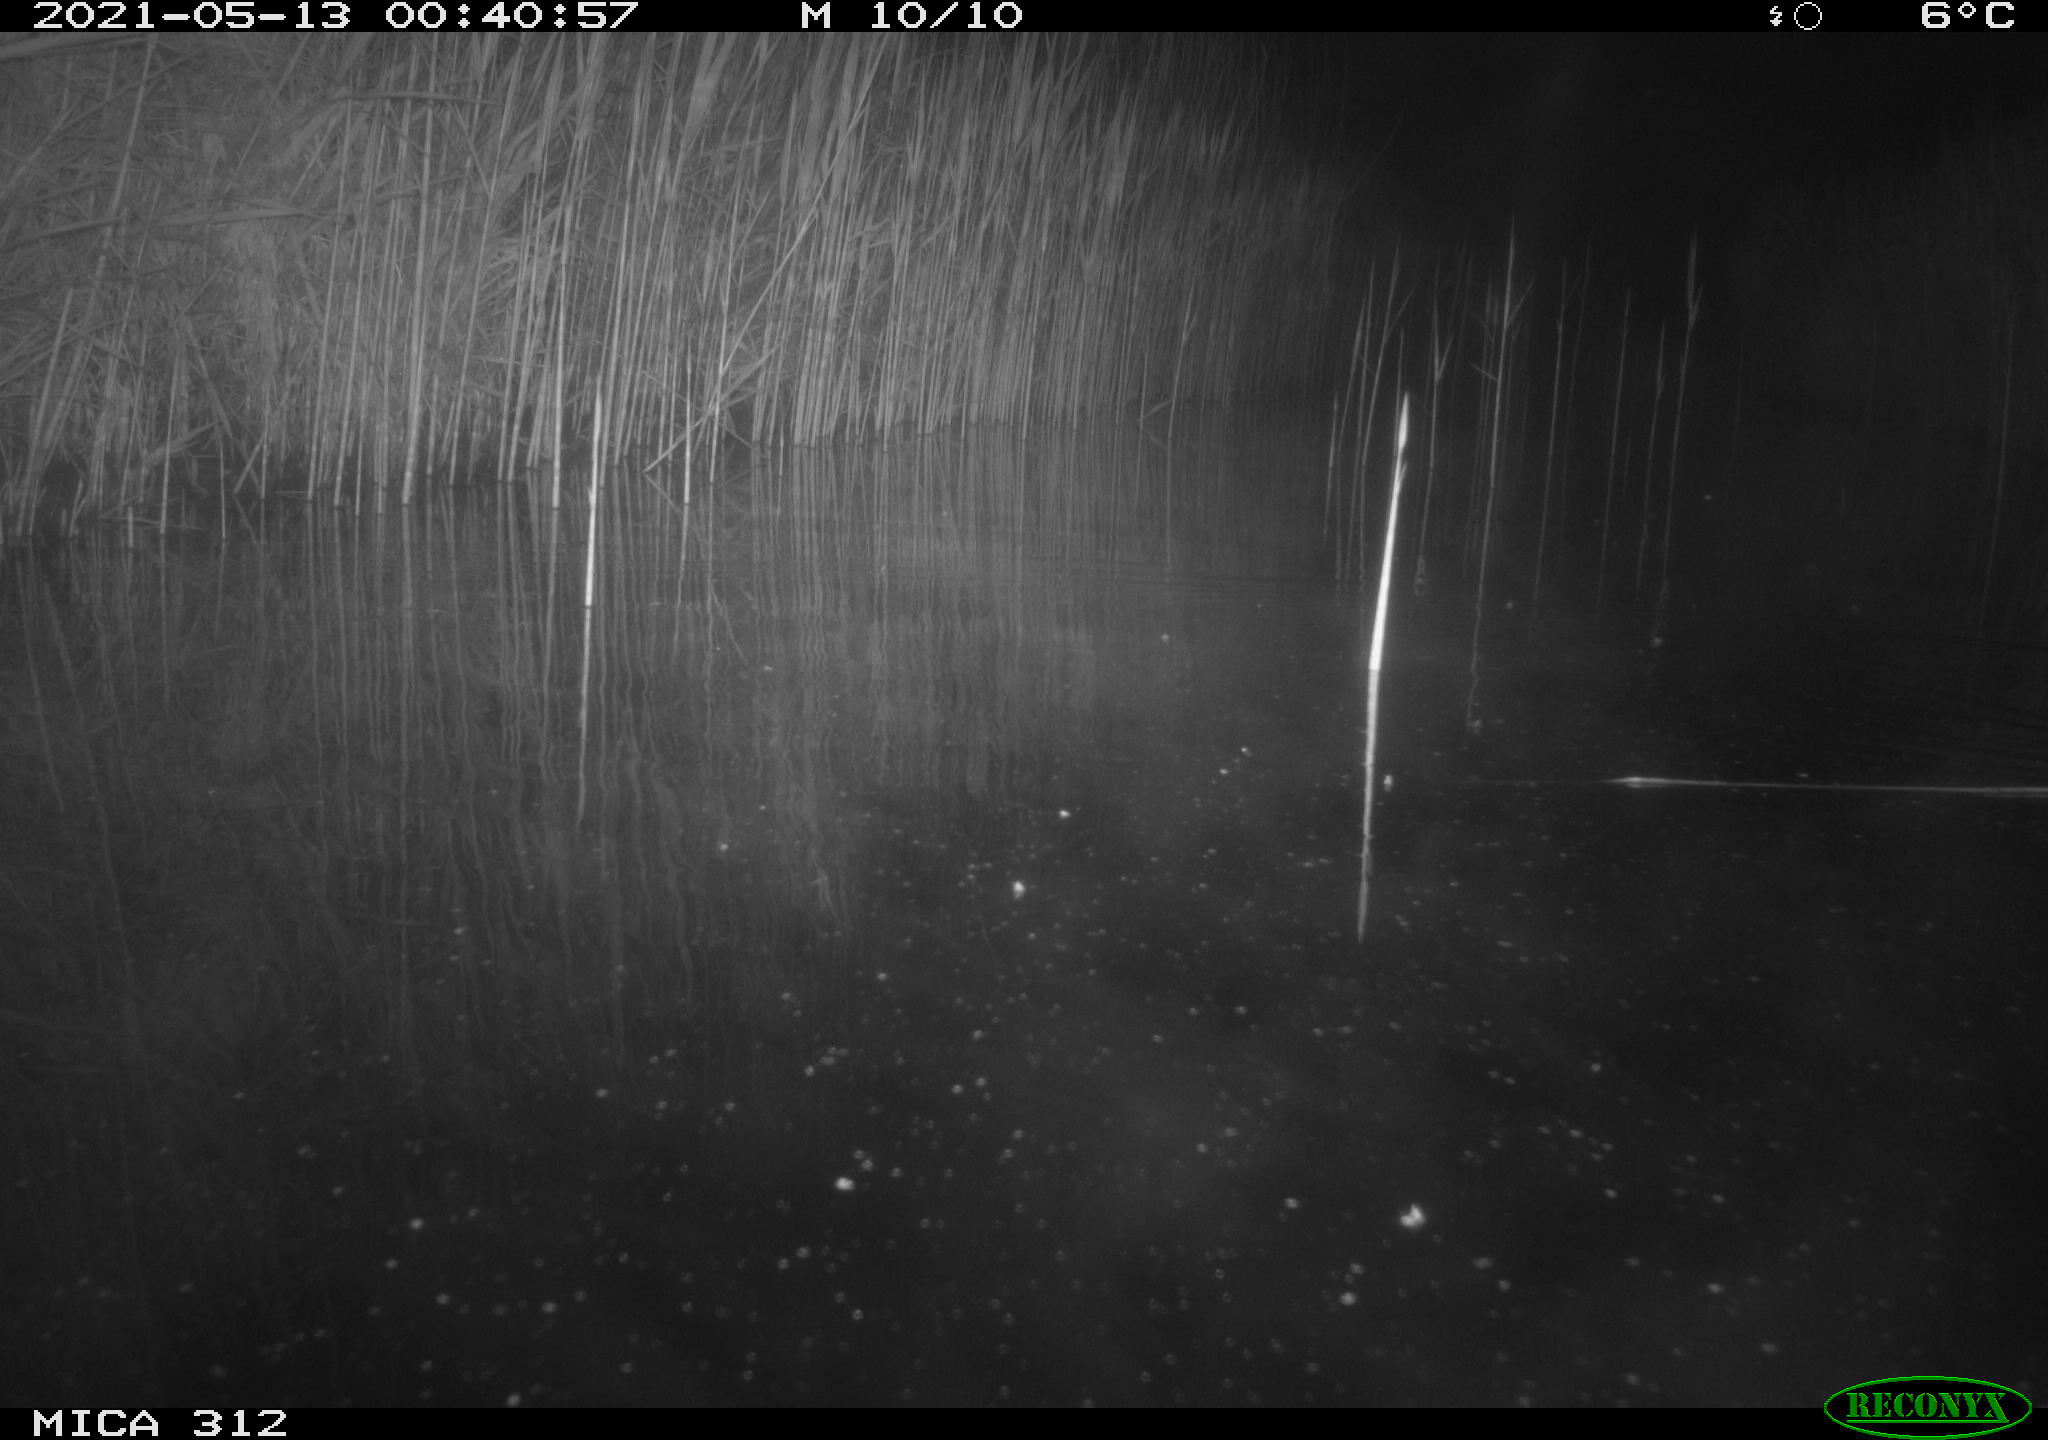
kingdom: Animalia
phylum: Chordata
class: Mammalia
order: Rodentia
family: Muridae
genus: Rattus
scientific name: Rattus norvegicus
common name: Brown rat
